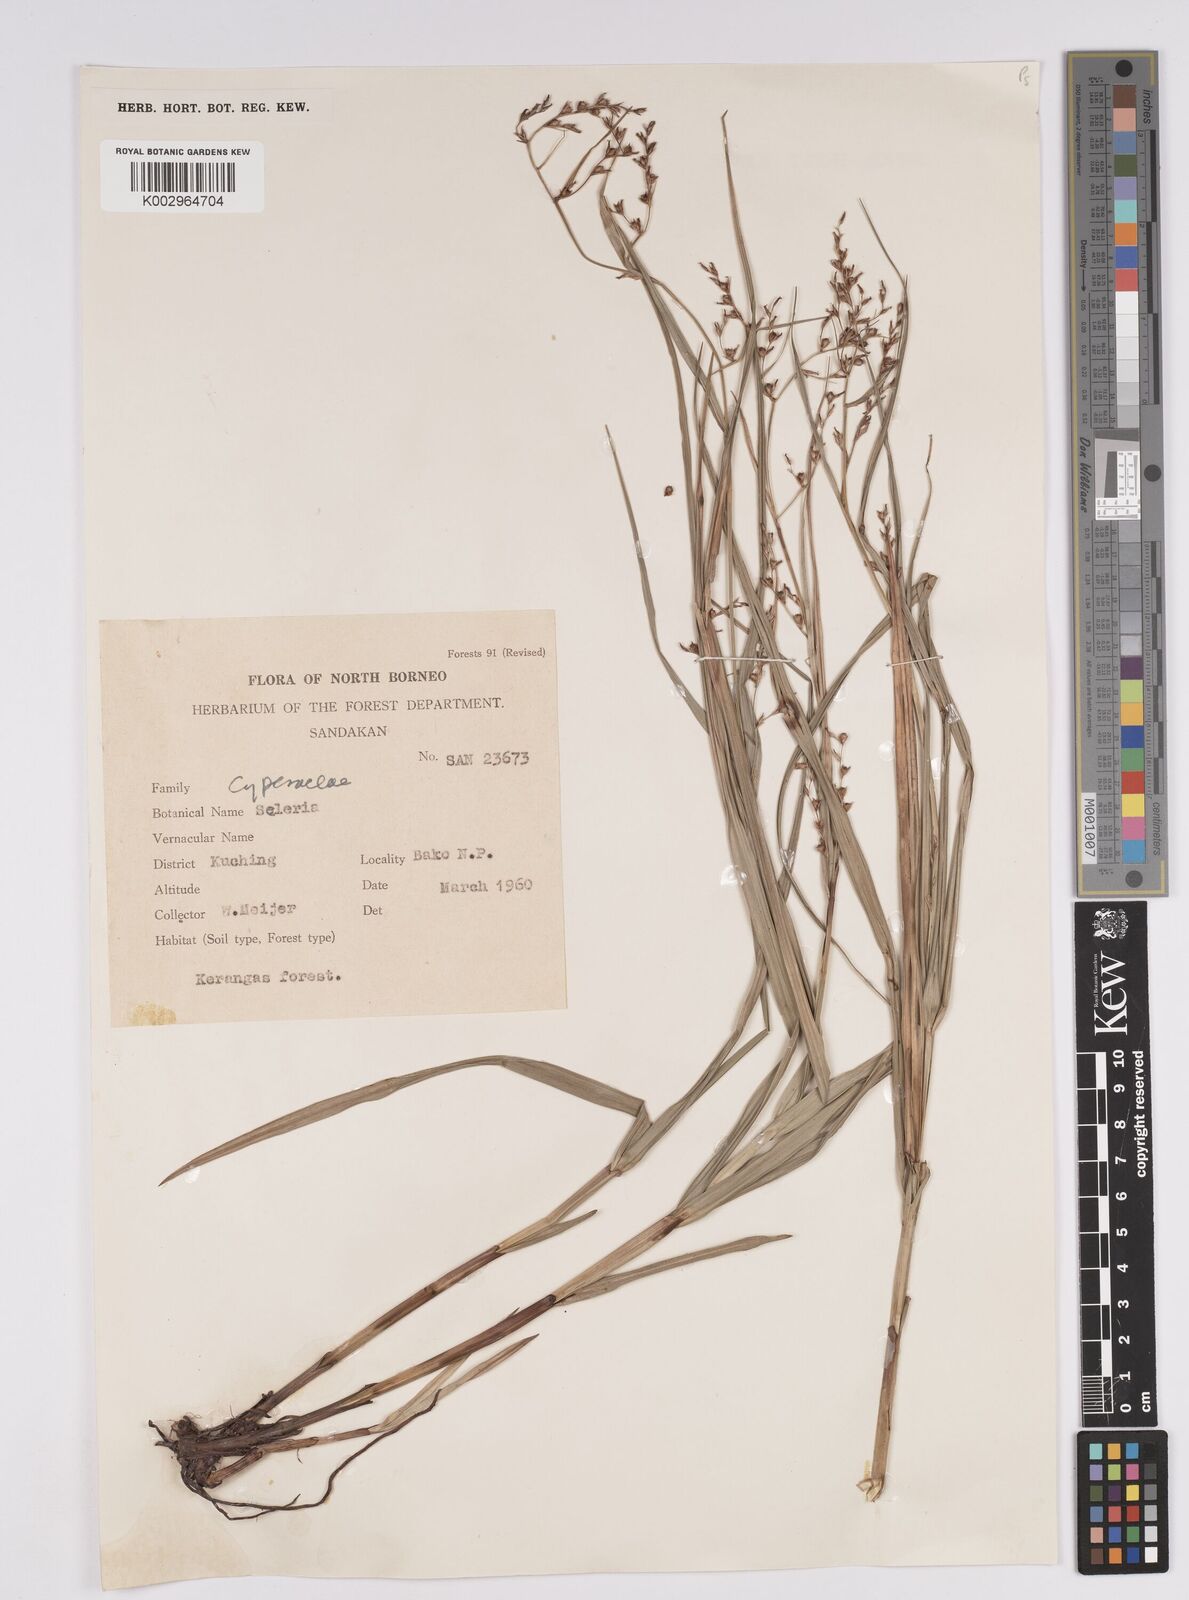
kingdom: Plantae
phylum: Tracheophyta
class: Liliopsida
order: Poales
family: Cyperaceae
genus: Scleria
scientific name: Scleria
